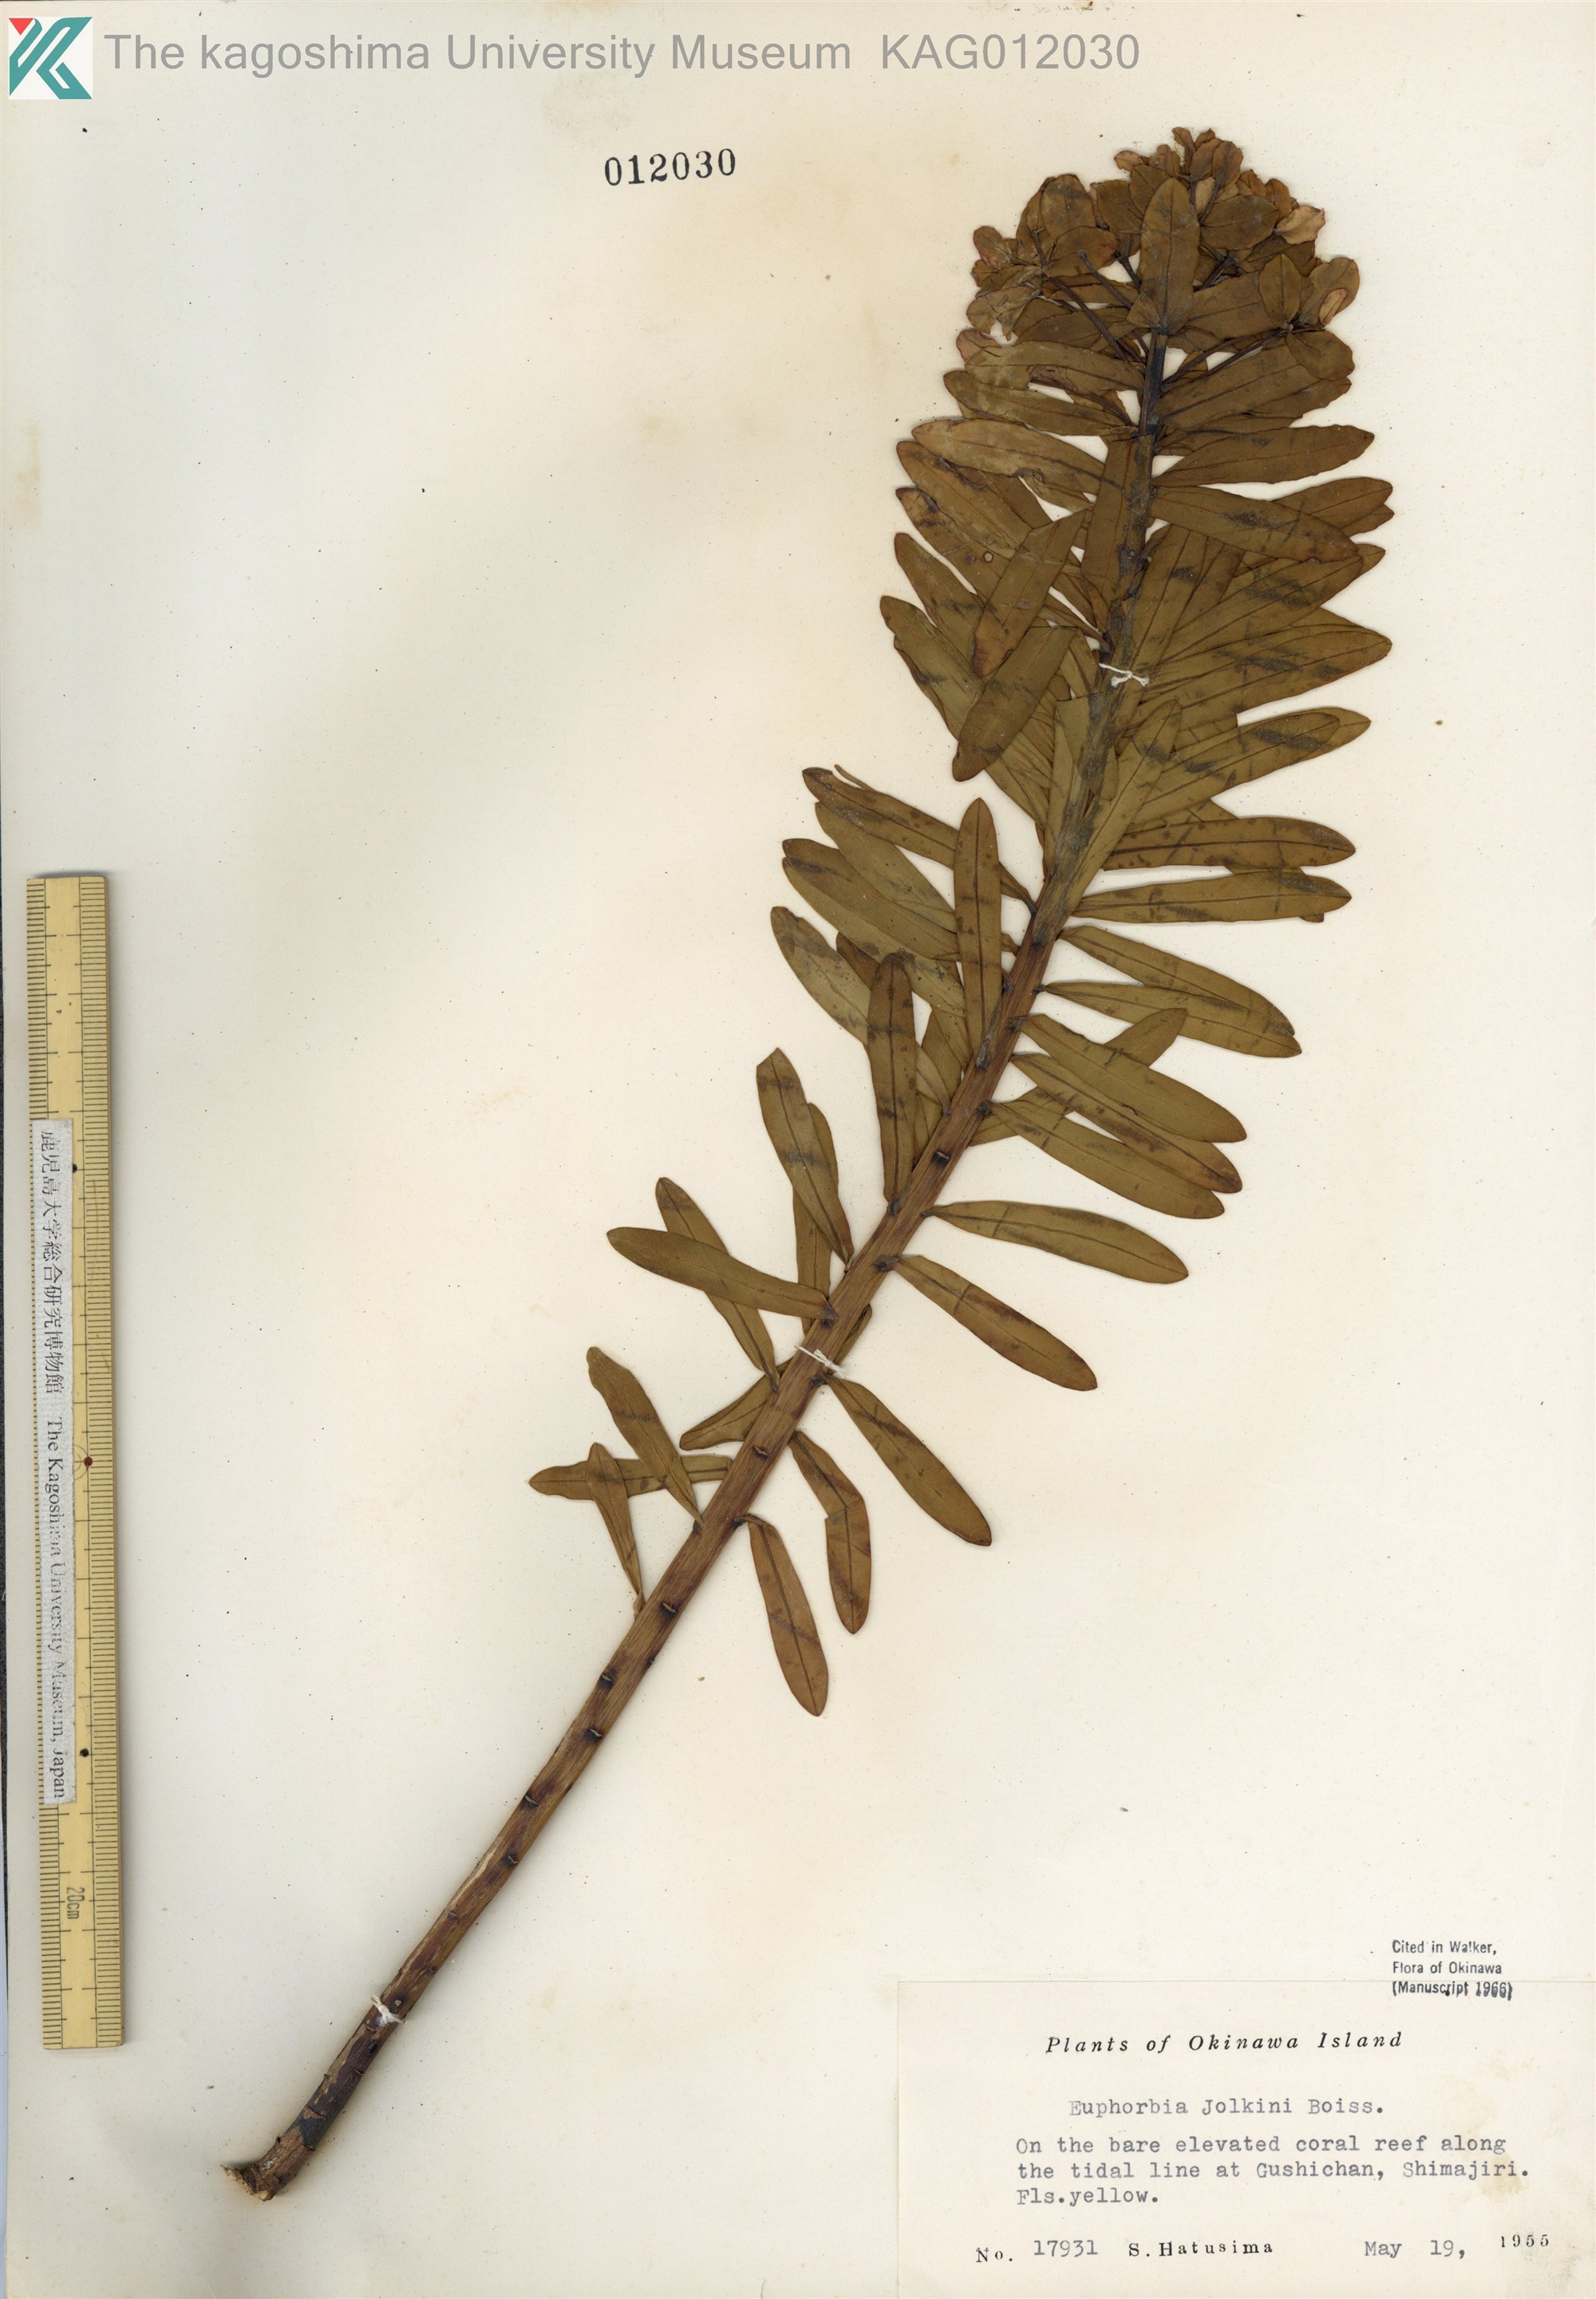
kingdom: Plantae
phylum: Tracheophyta
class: Magnoliopsida
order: Malpighiales
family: Euphorbiaceae
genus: Euphorbia
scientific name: Euphorbia jolkinii
